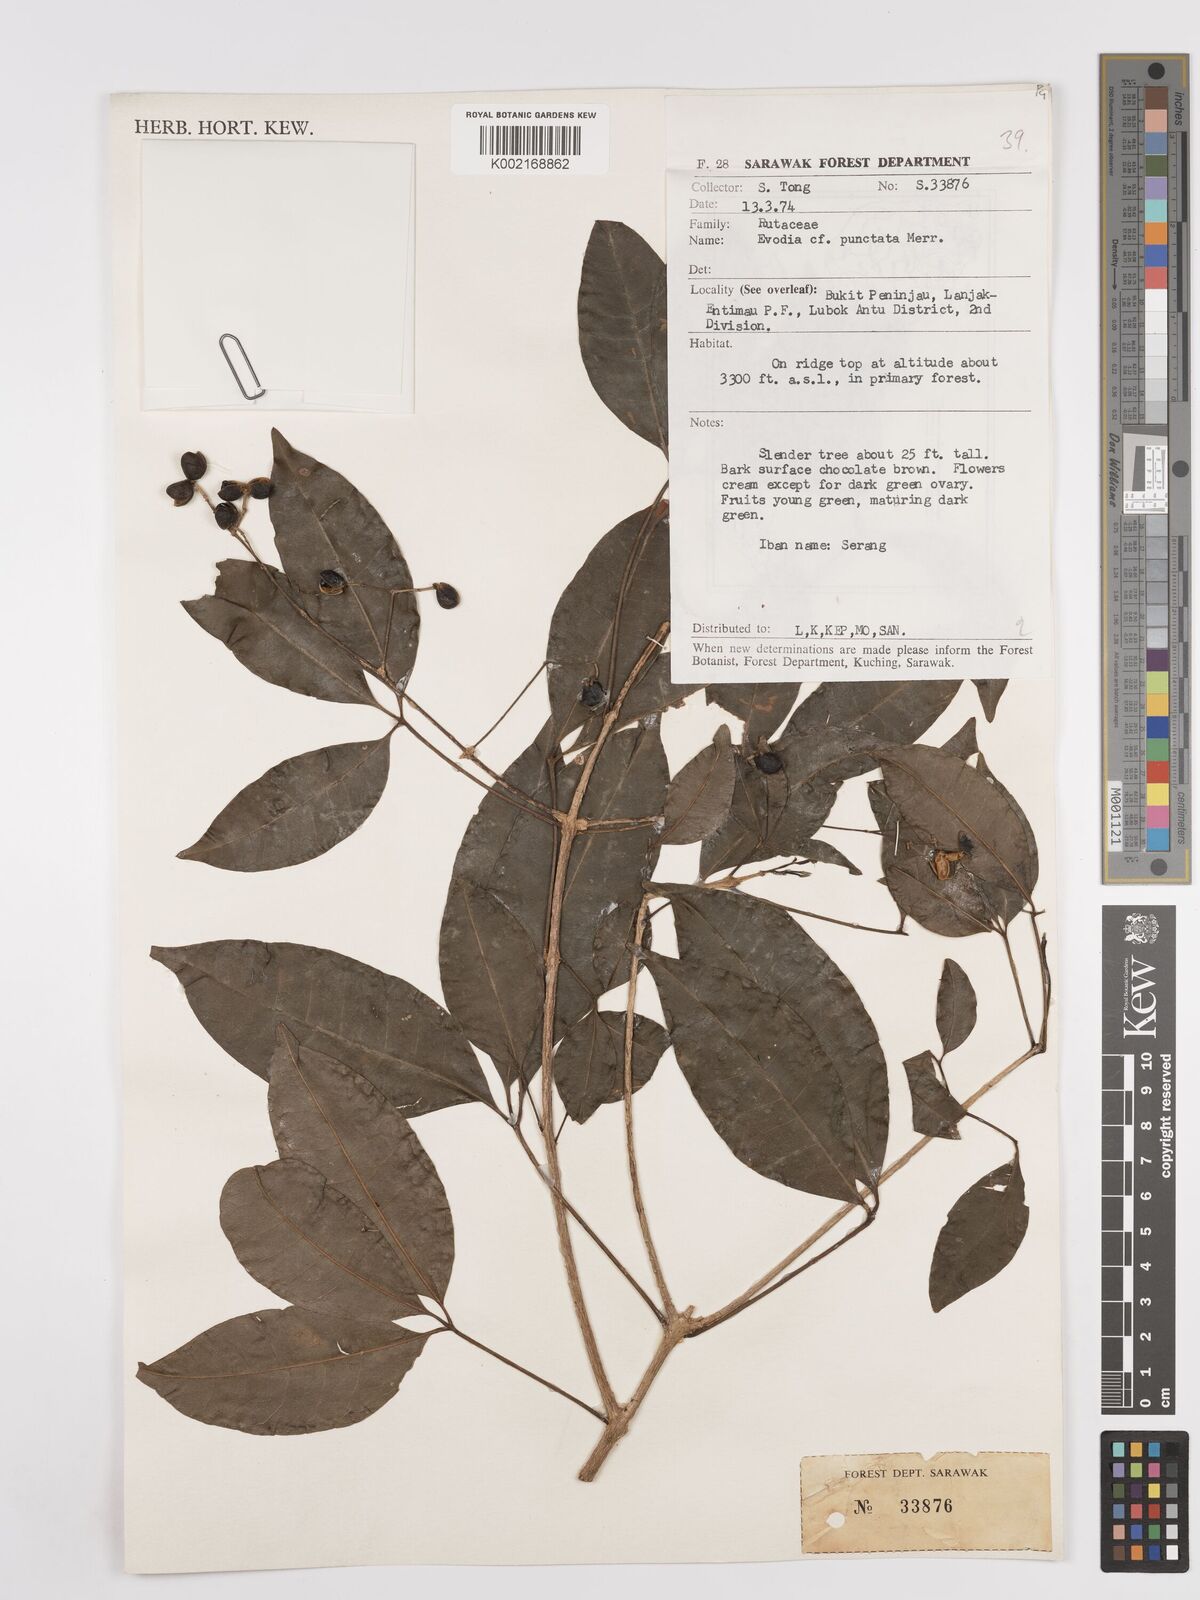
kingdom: Plantae
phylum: Tracheophyta
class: Magnoliopsida
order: Sapindales
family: Rutaceae
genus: Melicope
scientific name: Melicope lunu-ankenda
